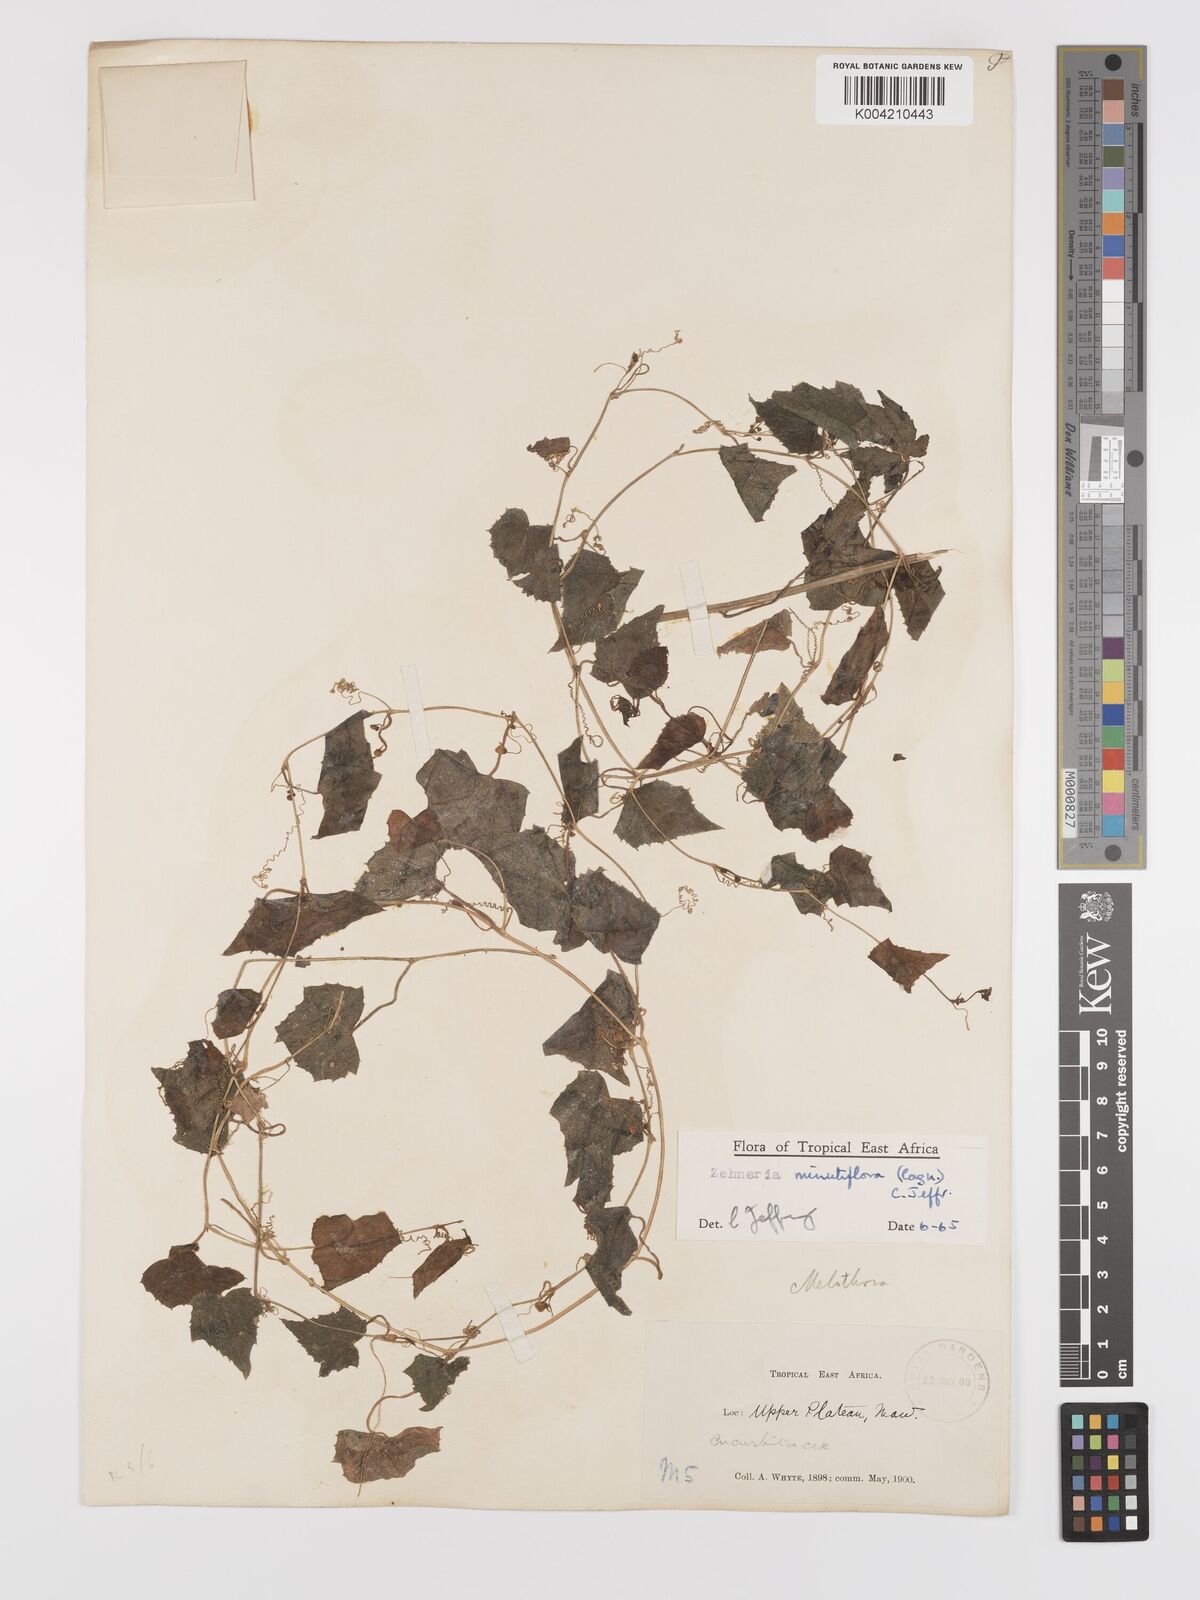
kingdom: Plantae
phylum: Tracheophyta
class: Magnoliopsida
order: Cucurbitales
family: Cucurbitaceae
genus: Zehneria
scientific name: Zehneria minutiflora
